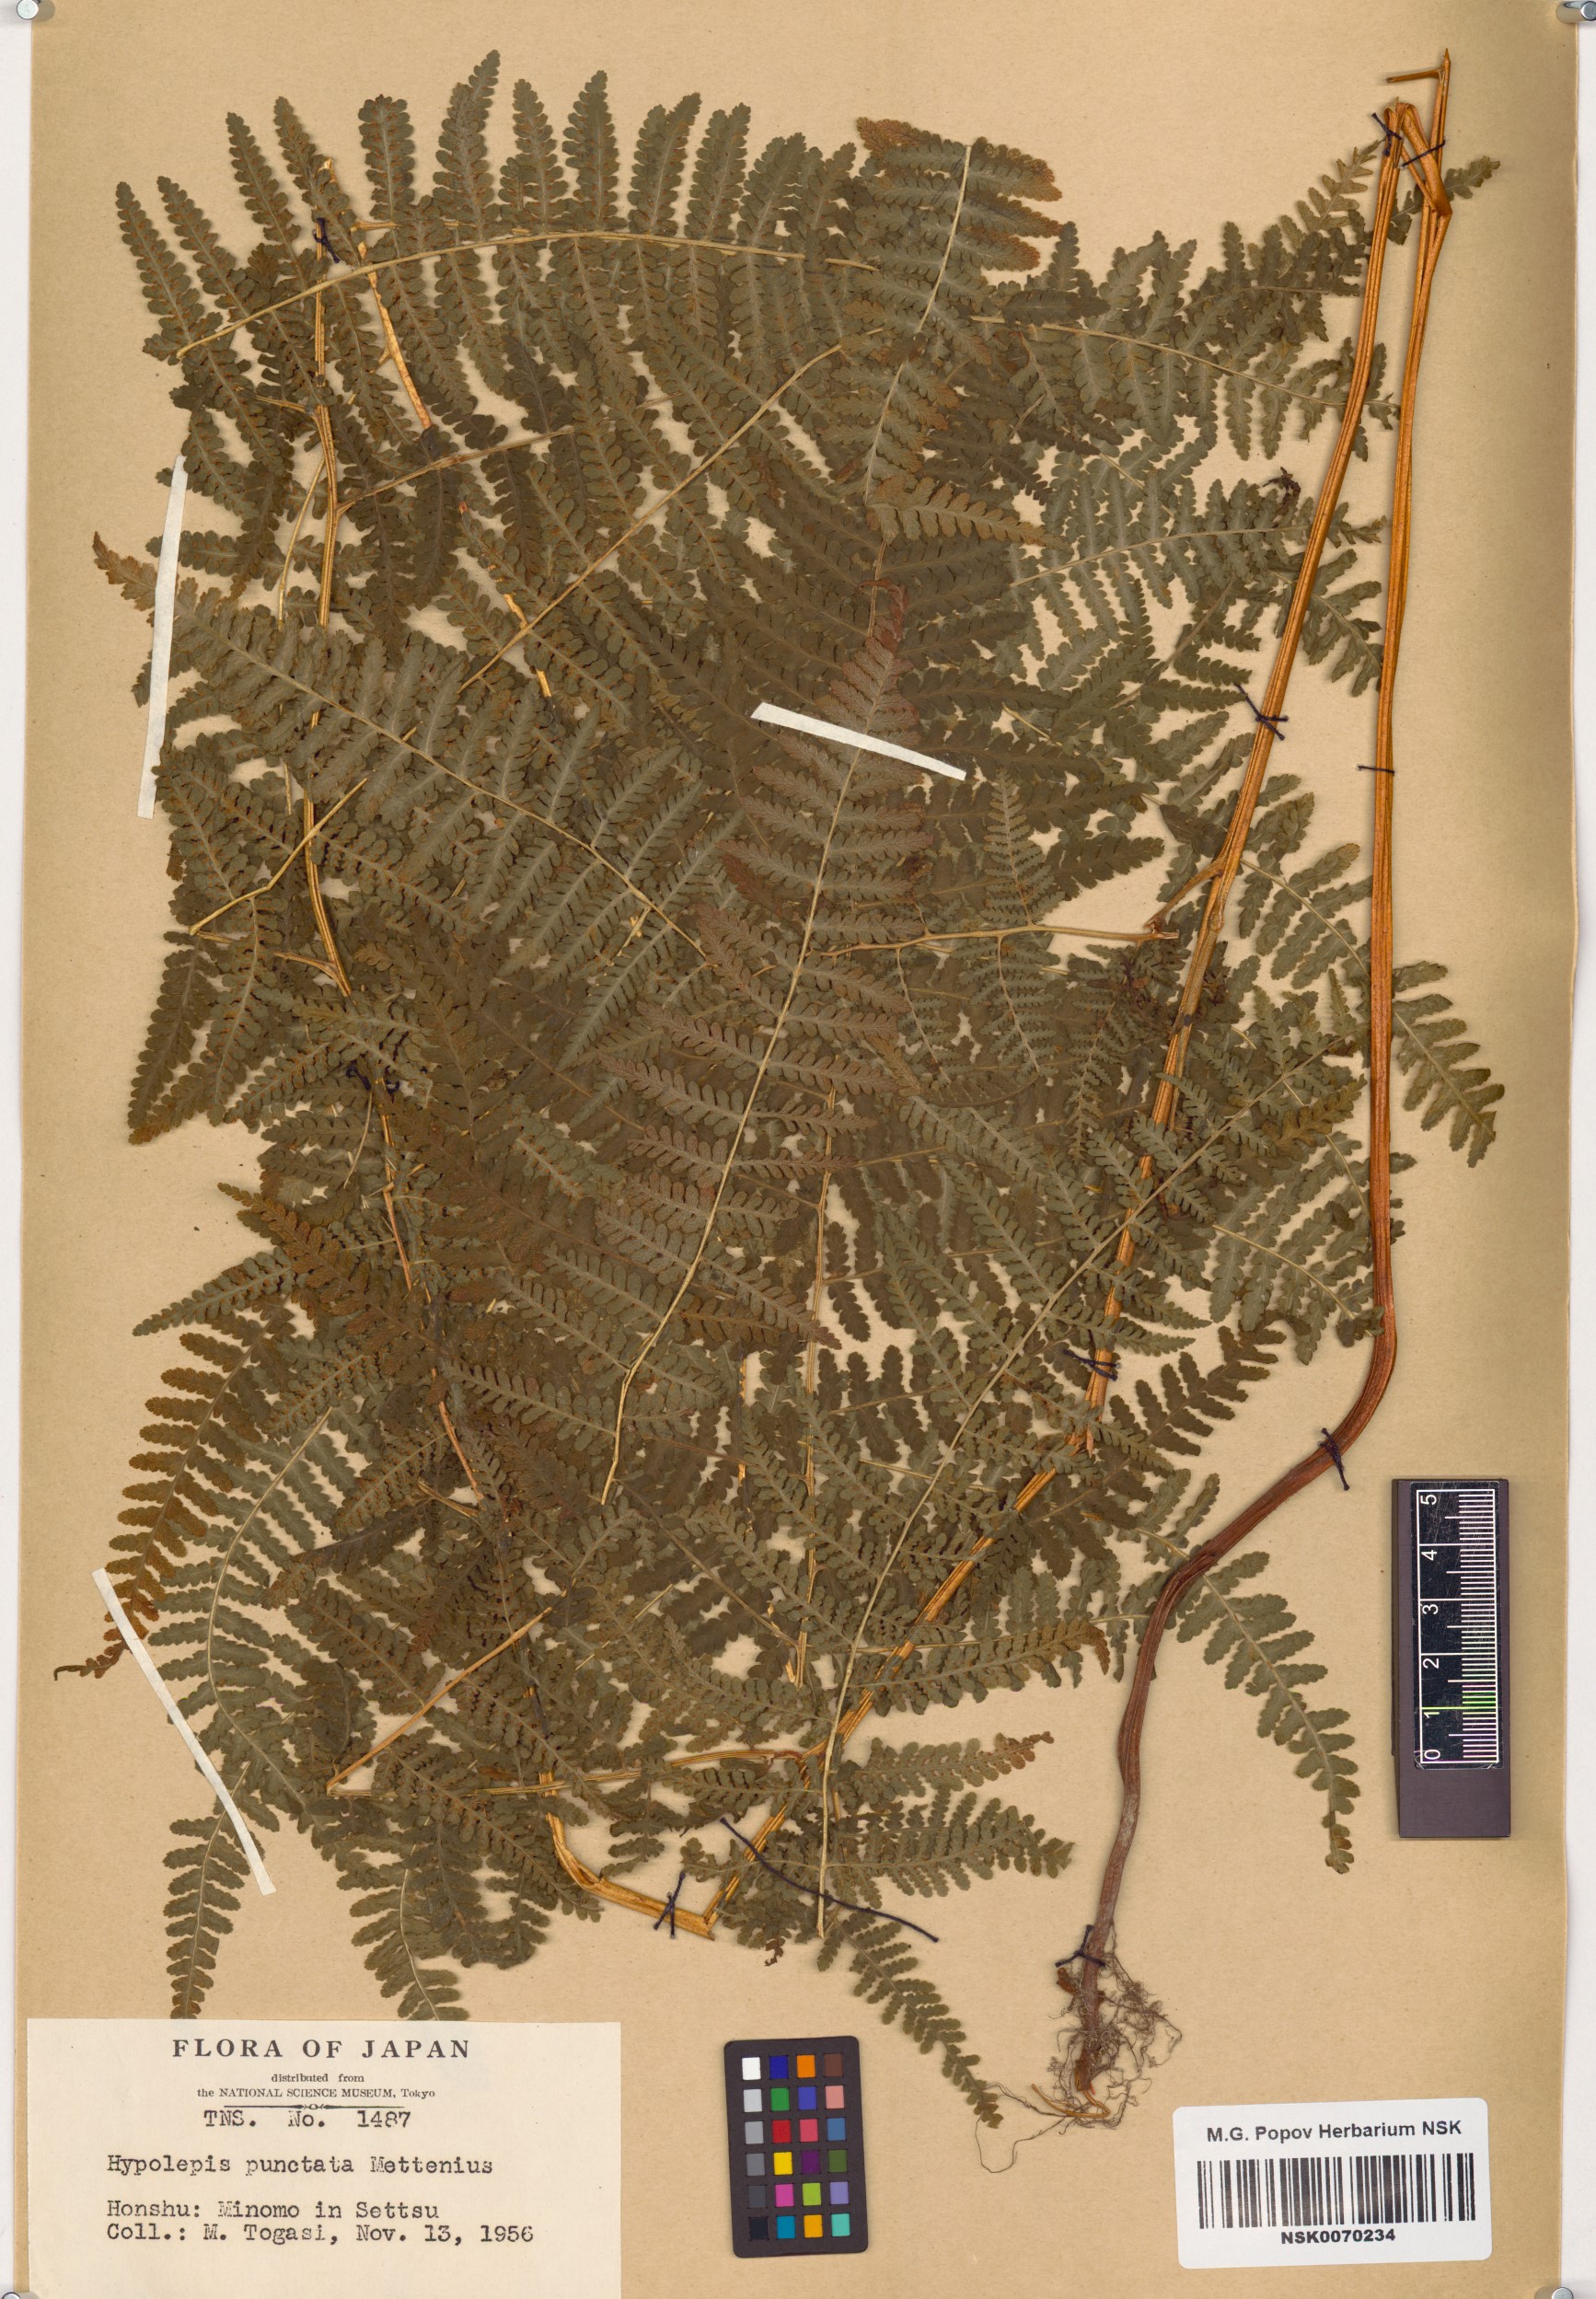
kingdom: Plantae
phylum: Tracheophyta
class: Polypodiopsida
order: Polypodiales
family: Dennstaedtiaceae
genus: Hypolepis
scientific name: Hypolepis punctata
